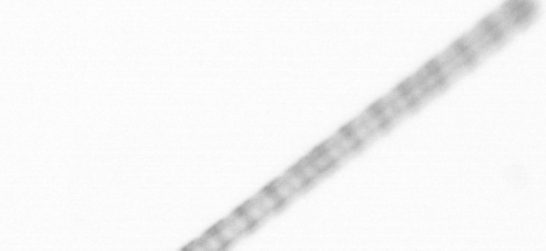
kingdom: Chromista
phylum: Ochrophyta
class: Bacillariophyceae
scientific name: Bacillariophyceae
